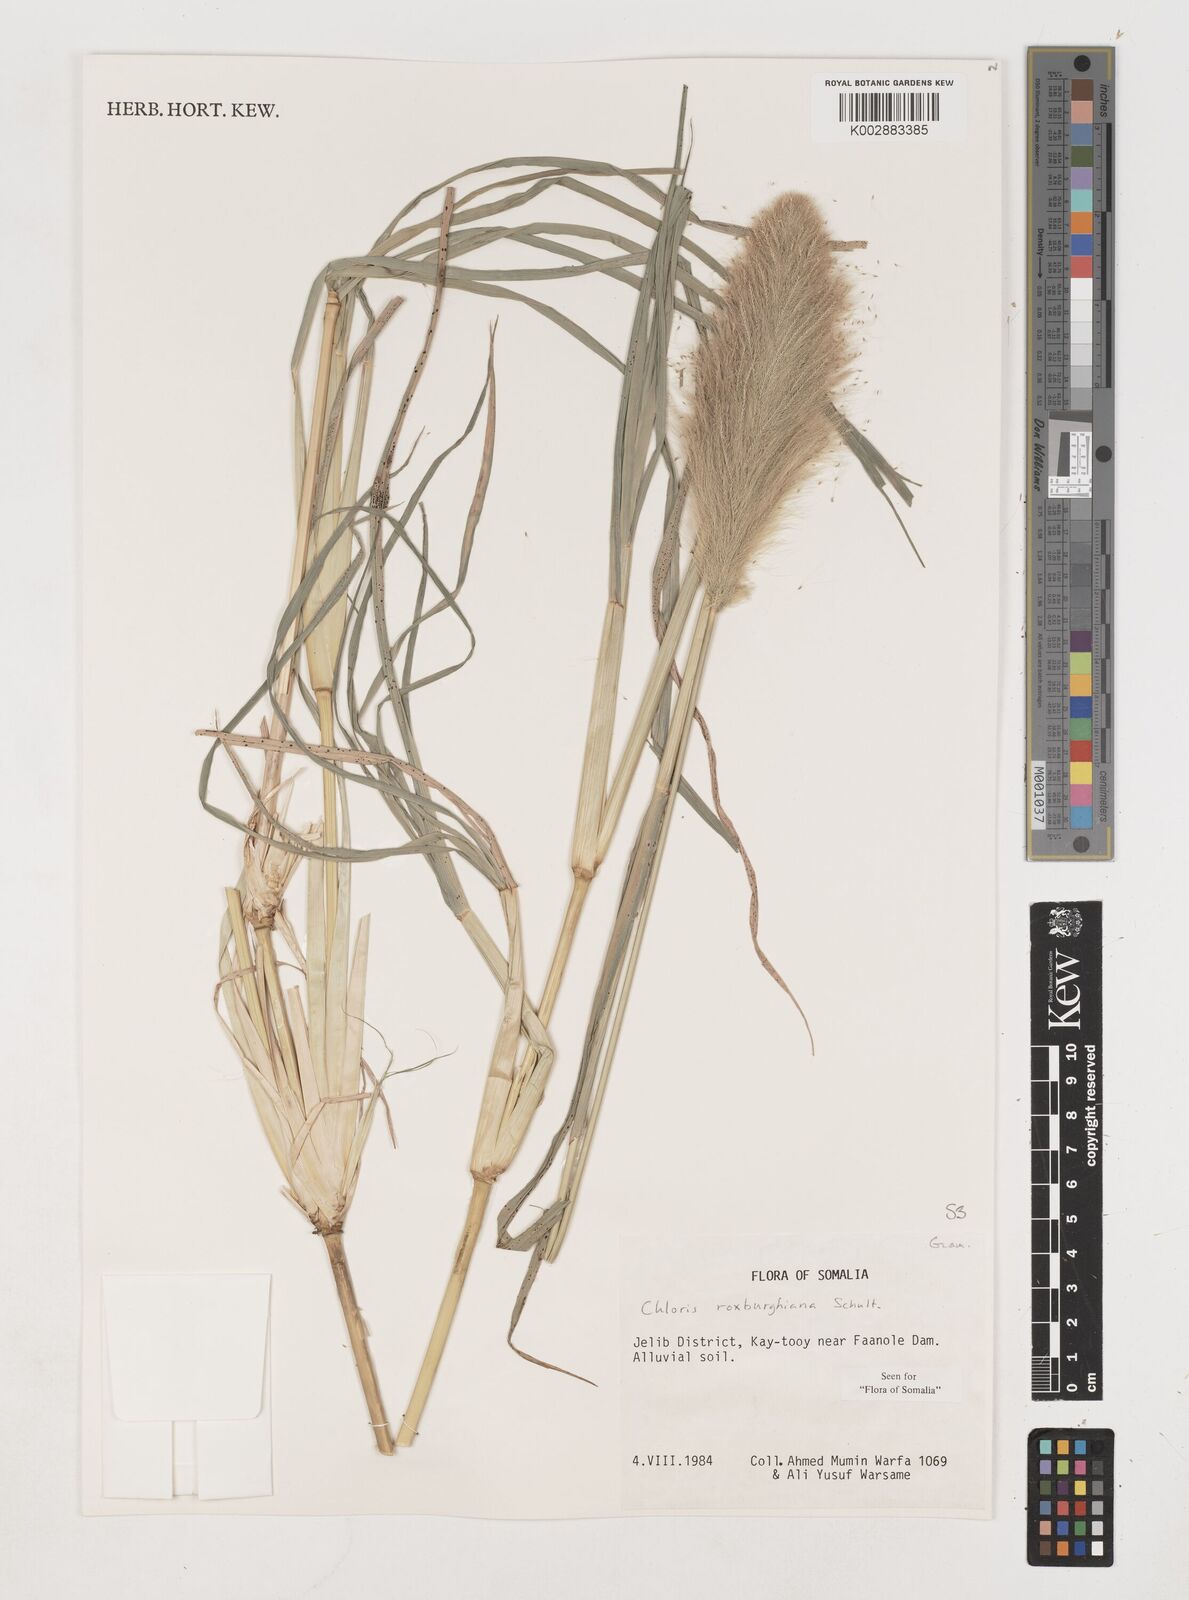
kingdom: Plantae
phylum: Tracheophyta
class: Liliopsida
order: Poales
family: Poaceae
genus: Tetrapogon
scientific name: Tetrapogon roxburghiana
